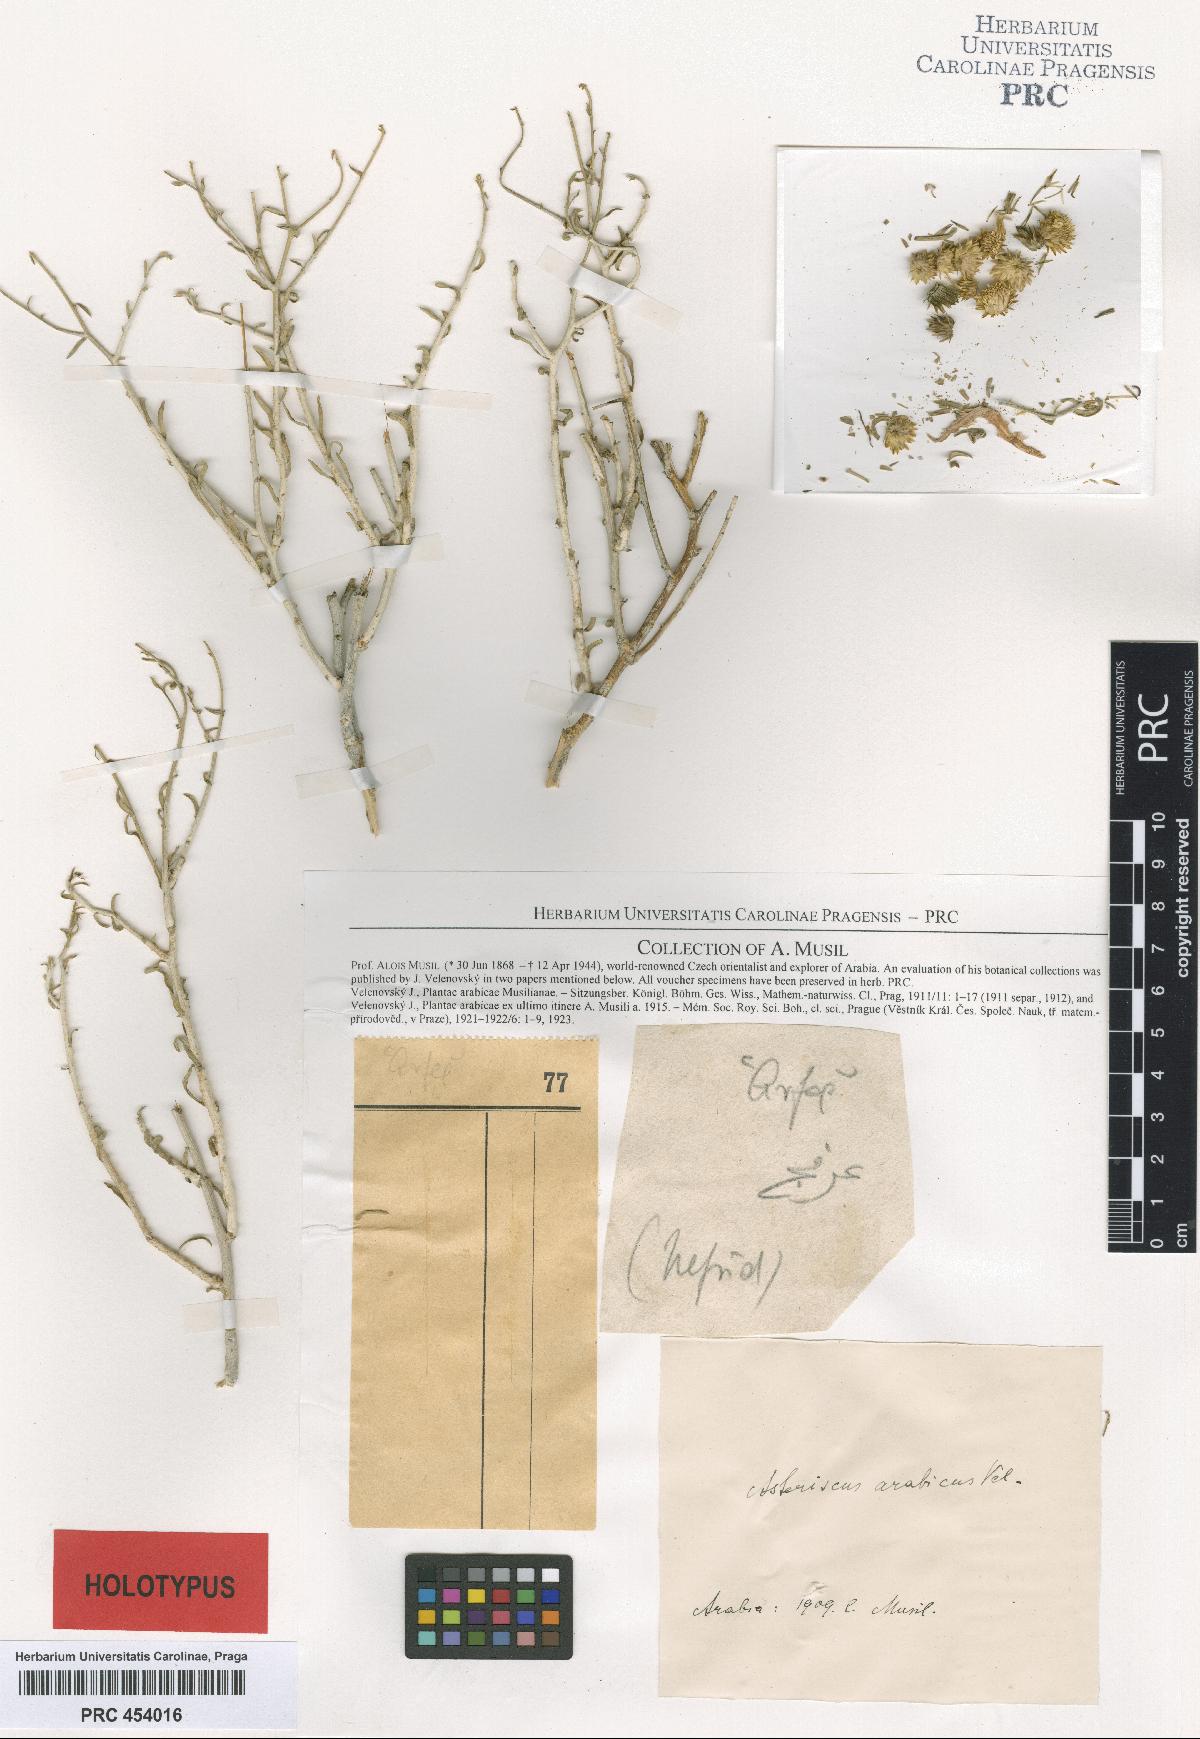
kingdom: Plantae
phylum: Tracheophyta
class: Magnoliopsida
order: Asterales
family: Asteraceae
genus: Rhanterium
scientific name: Rhanterium epapposum
